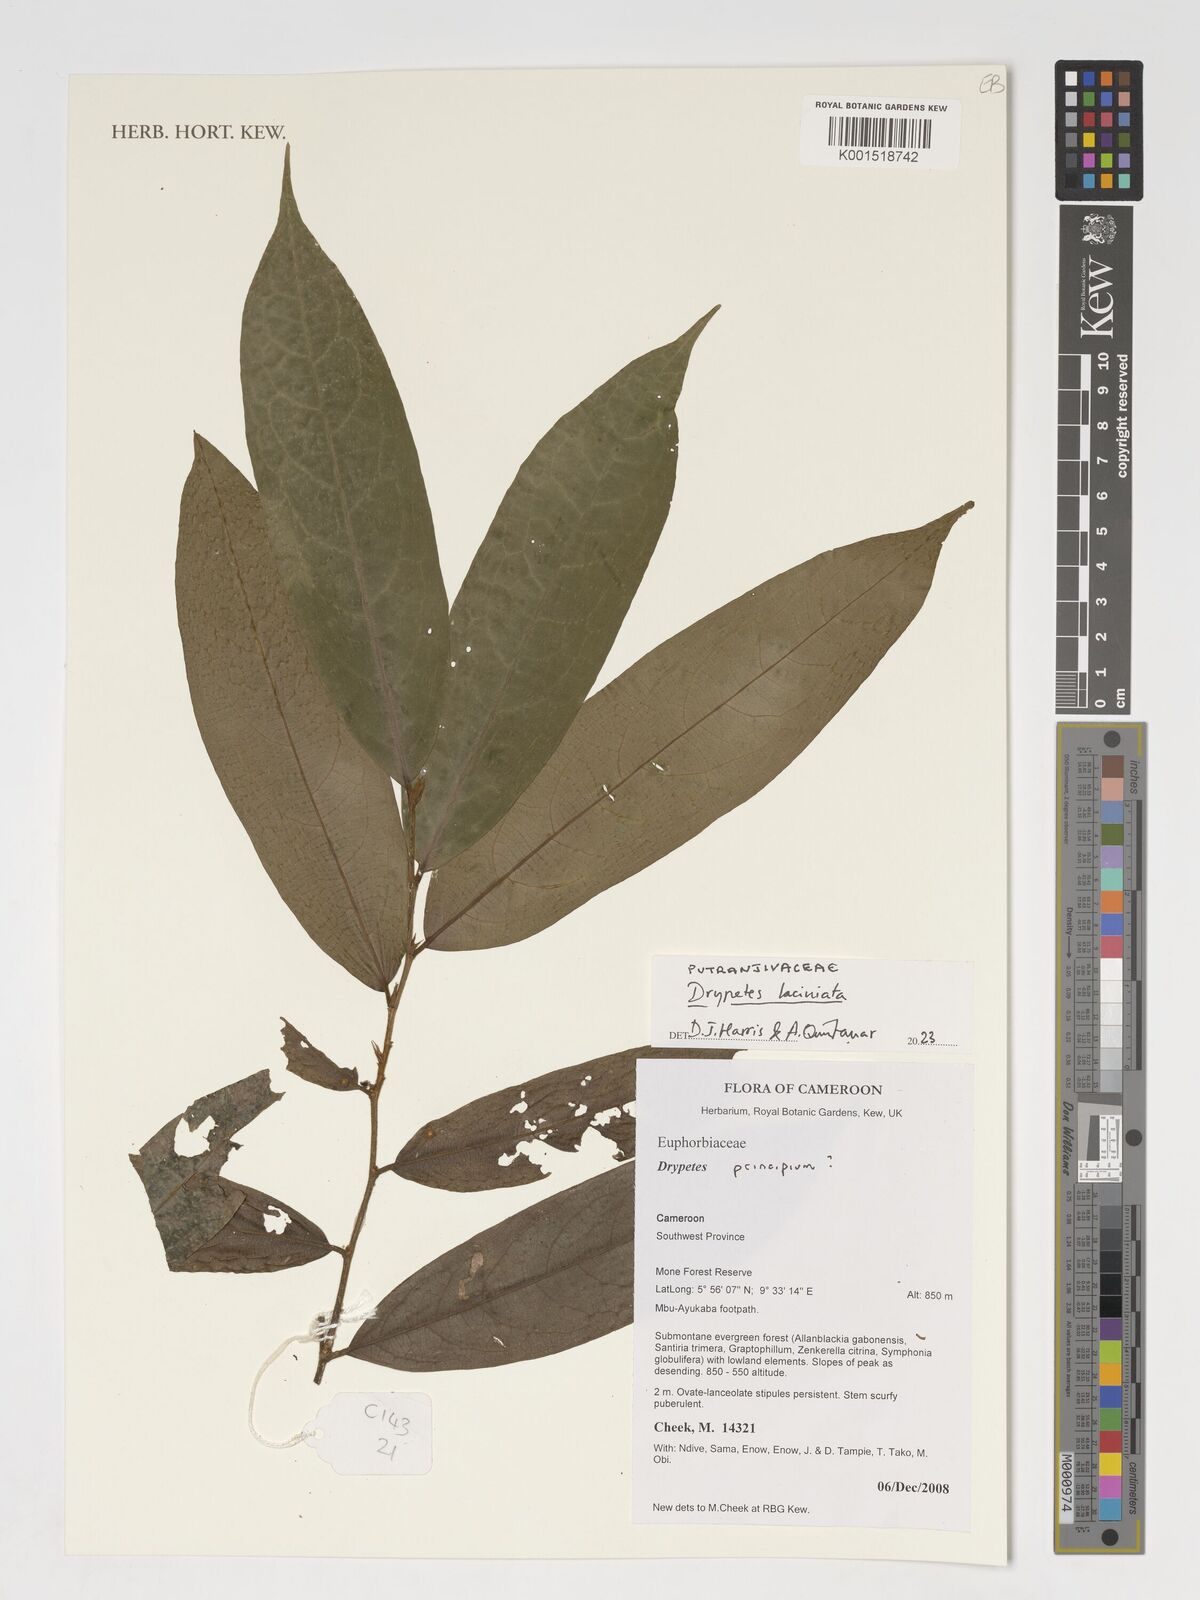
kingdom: Plantae
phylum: Tracheophyta
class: Magnoliopsida
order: Malpighiales
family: Putranjivaceae
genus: Drypetes
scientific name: Drypetes laciniata
